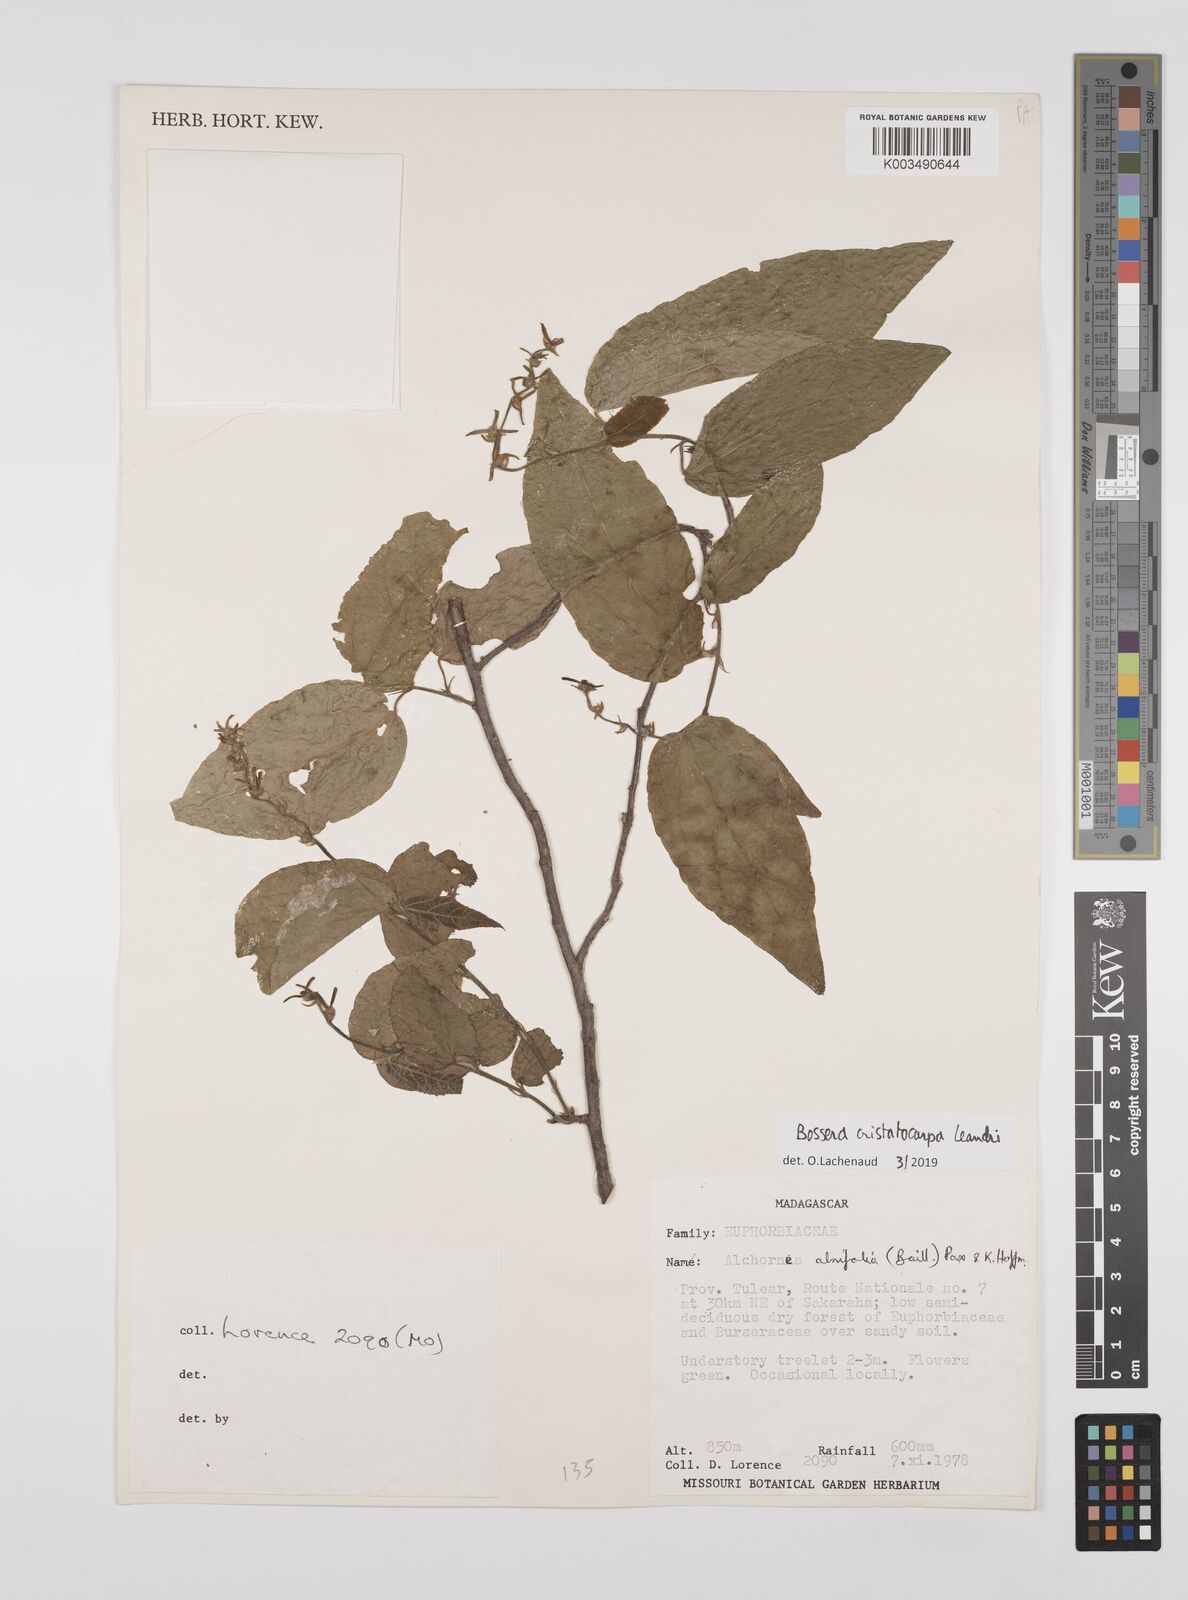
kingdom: Plantae
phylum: Tracheophyta
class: Magnoliopsida
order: Malpighiales
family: Euphorbiaceae
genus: Bossera
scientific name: Bossera cristatocarpa
